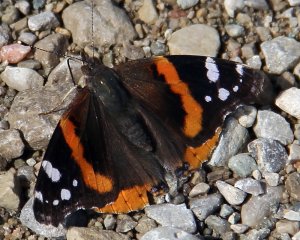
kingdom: Animalia
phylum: Arthropoda
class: Insecta
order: Lepidoptera
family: Nymphalidae
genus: Vanessa
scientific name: Vanessa atalanta
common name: Red Admiral
